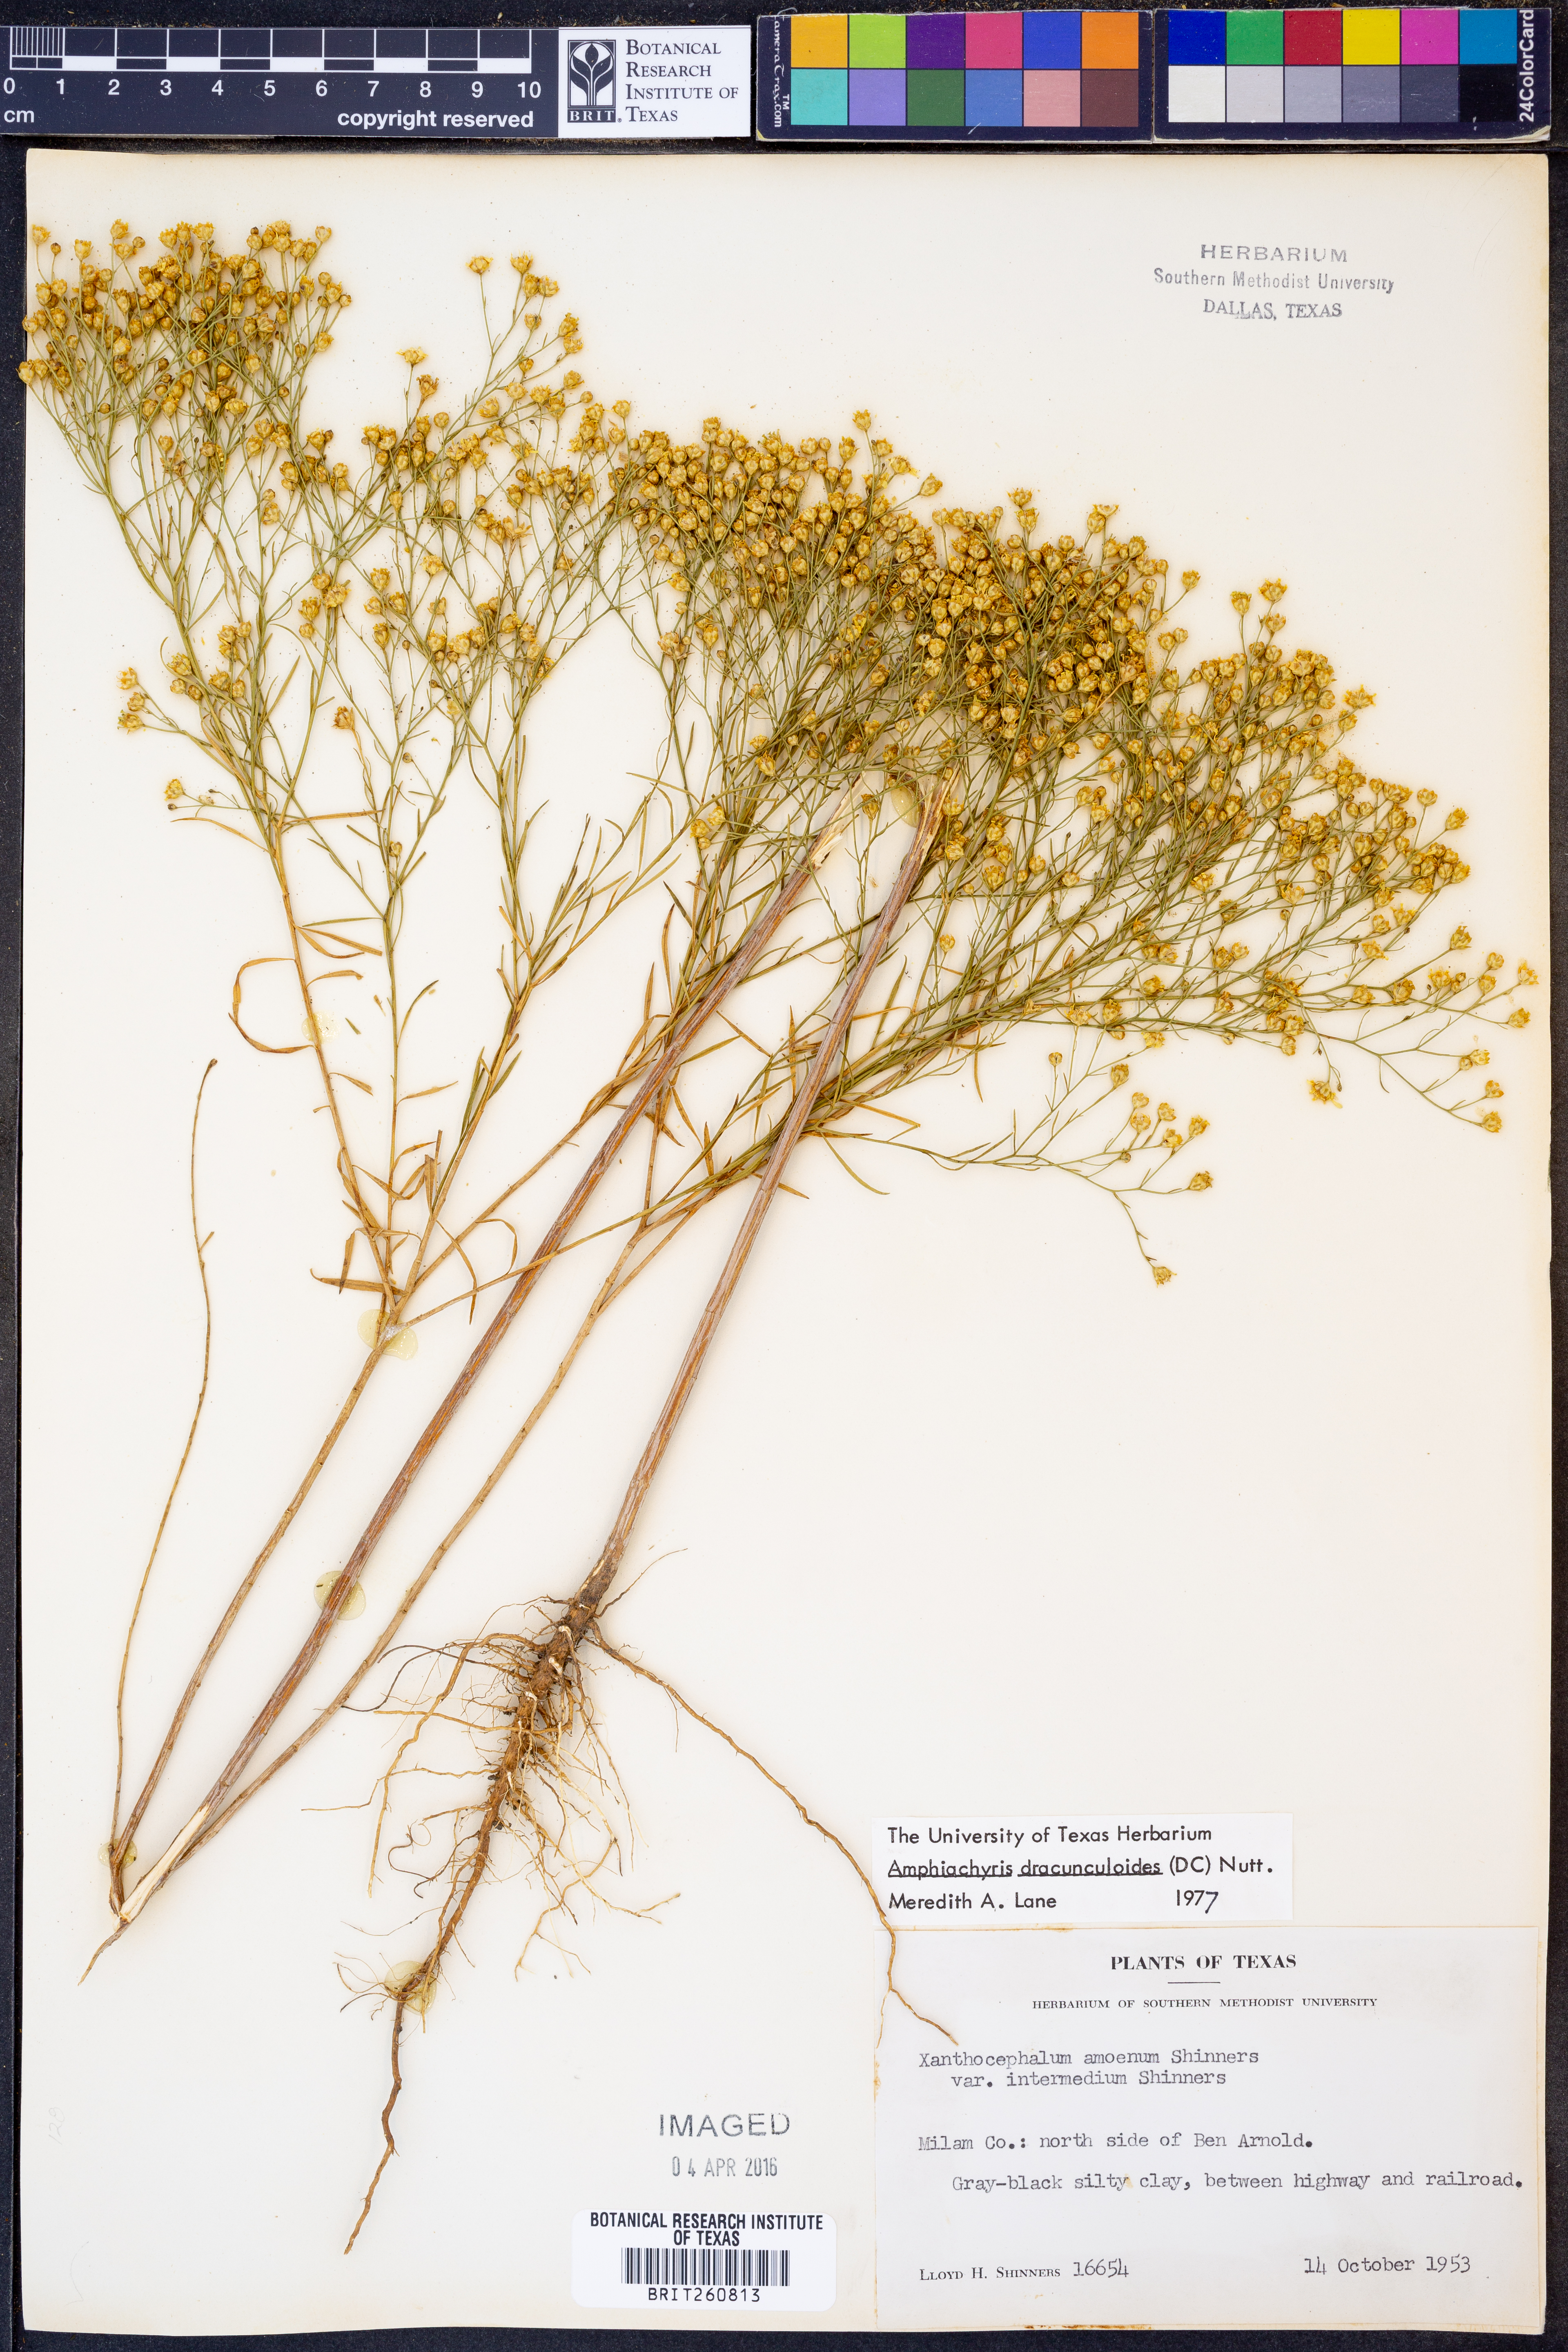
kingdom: Plantae
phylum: Tracheophyta
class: Magnoliopsida
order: Asterales
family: Asteraceae
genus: Amphiachyris
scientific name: Amphiachyris dracunculoides
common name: Broomweed
